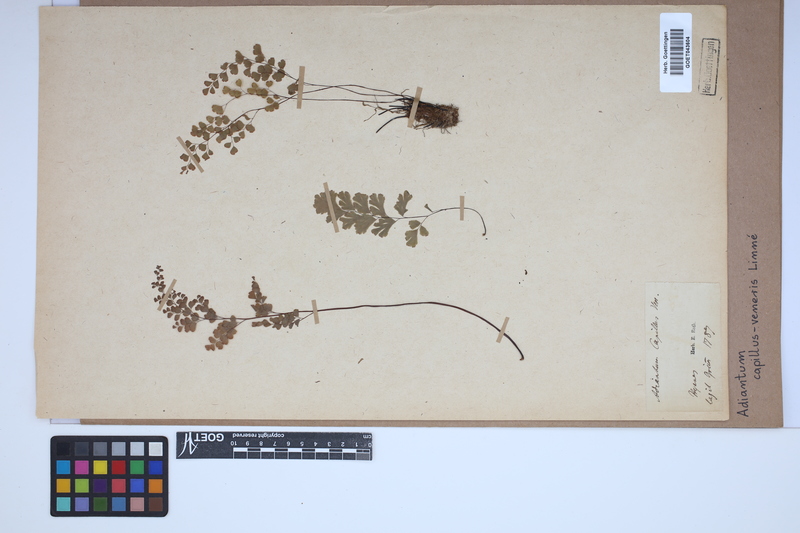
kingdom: Plantae
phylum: Tracheophyta
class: Polypodiopsida
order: Polypodiales
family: Pteridaceae
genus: Adiantum
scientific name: Adiantum capillus-veneris
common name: Maidenhair fern
